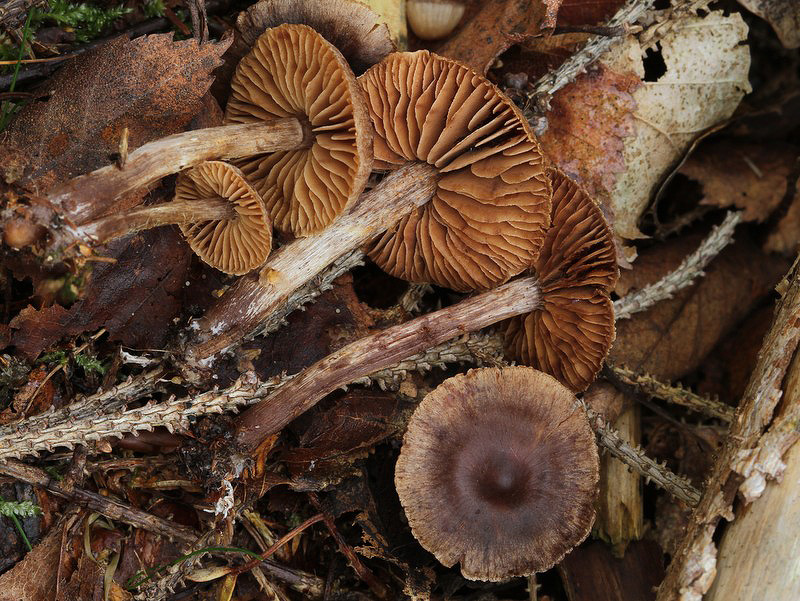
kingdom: Fungi
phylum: Basidiomycota
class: Agaricomycetes
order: Agaricales
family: Cortinariaceae
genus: Cortinarius
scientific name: Cortinarius umbrinolens
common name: mørk slørhat
